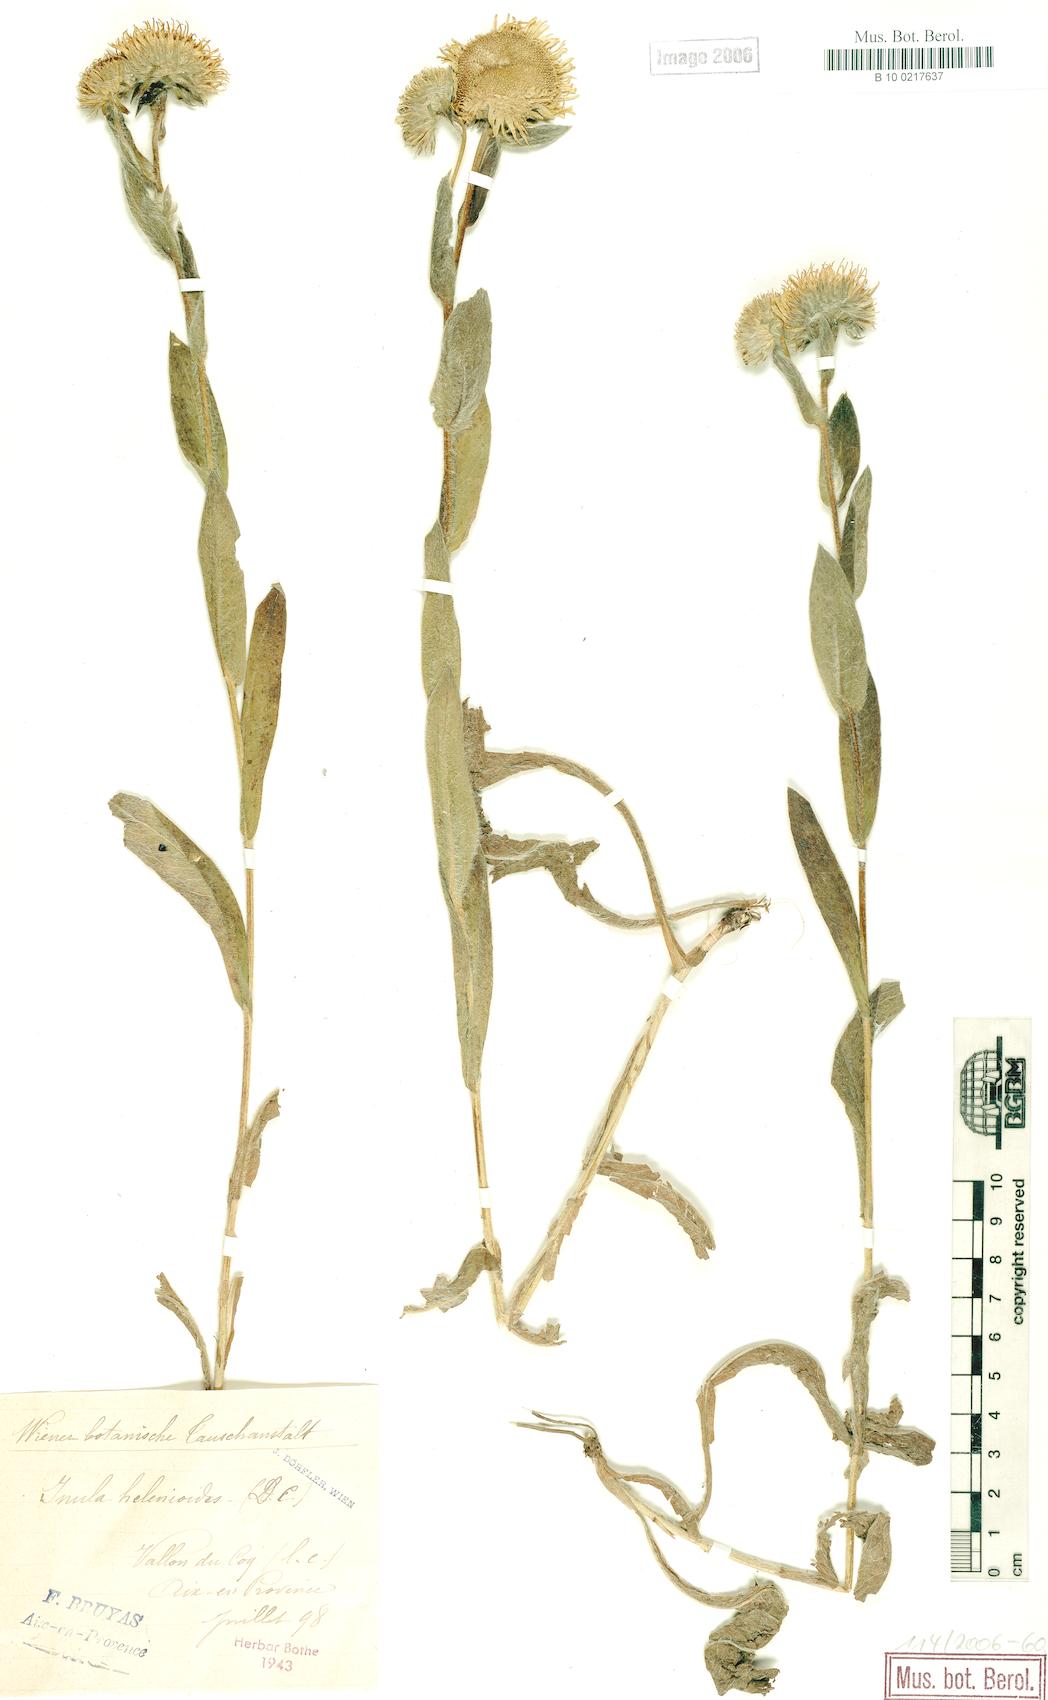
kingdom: Plantae
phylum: Tracheophyta
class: Magnoliopsida
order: Asterales
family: Asteraceae
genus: Pentanema
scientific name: Pentanema helenioides
